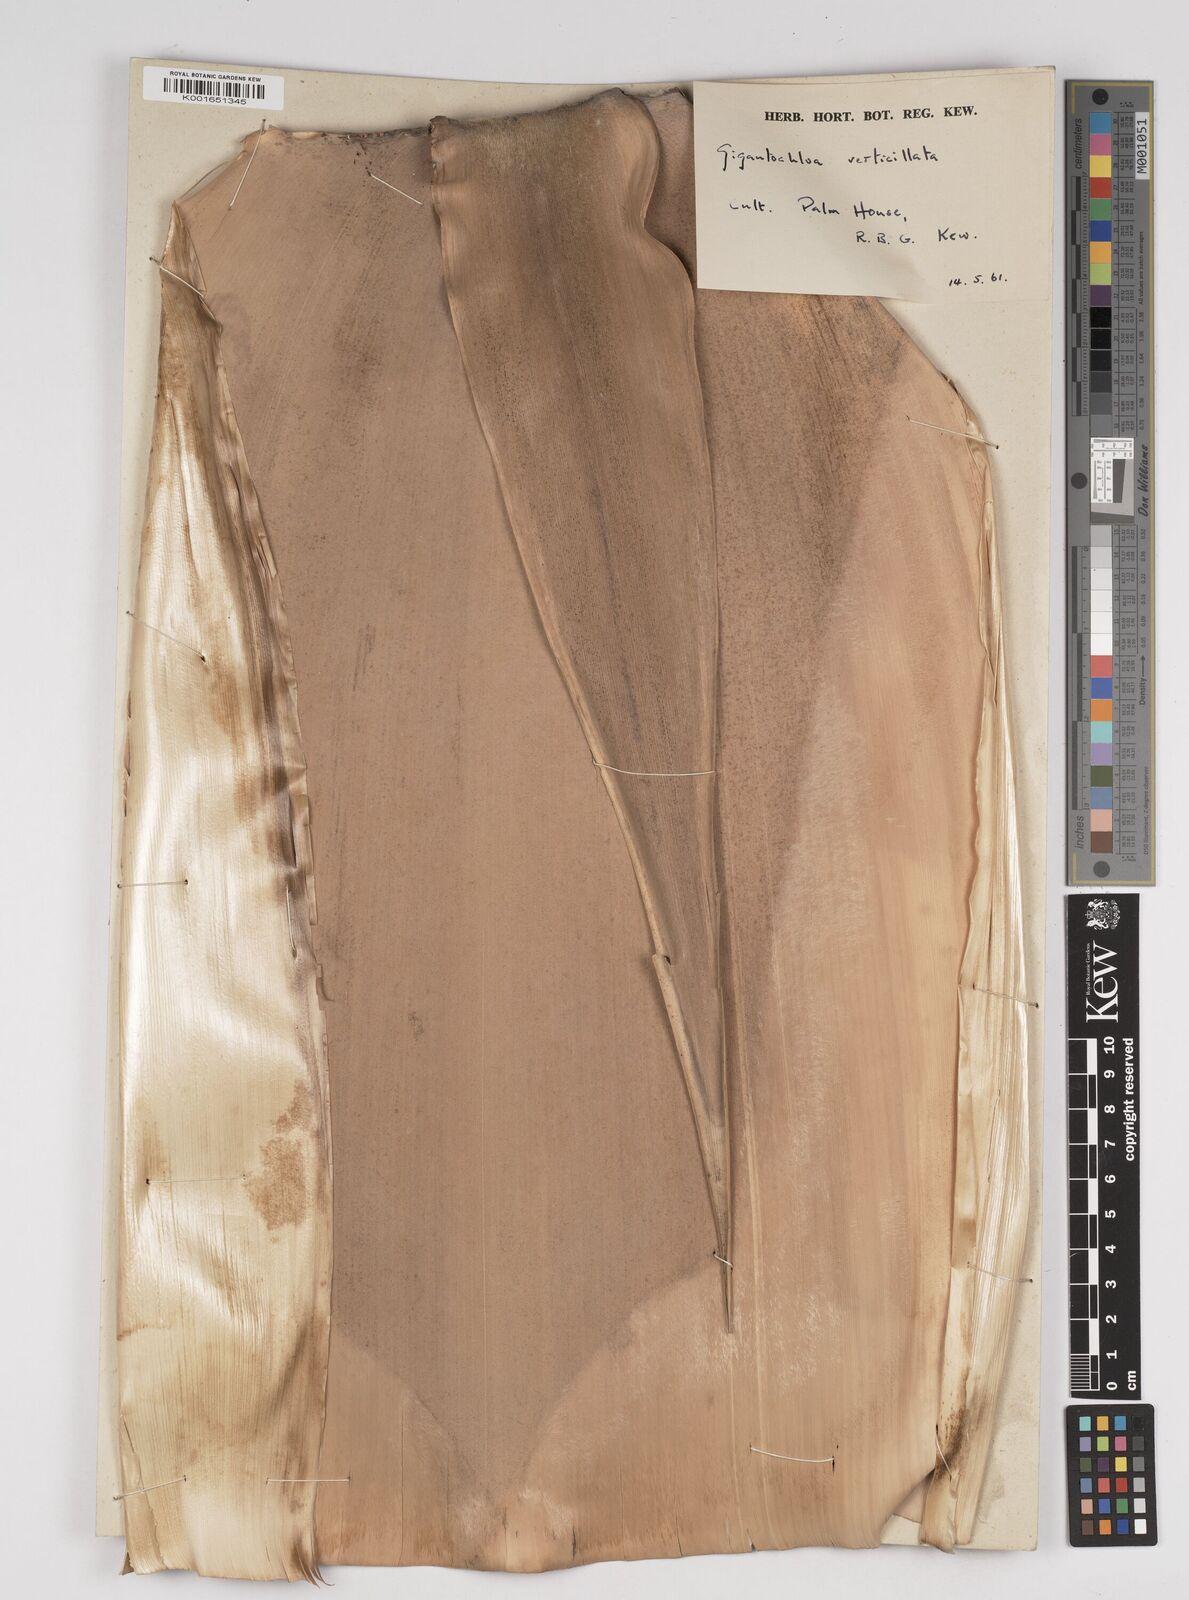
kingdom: Plantae
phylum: Tracheophyta
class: Liliopsida
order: Poales
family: Poaceae
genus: Gigantochloa
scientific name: Gigantochloa verticillata
